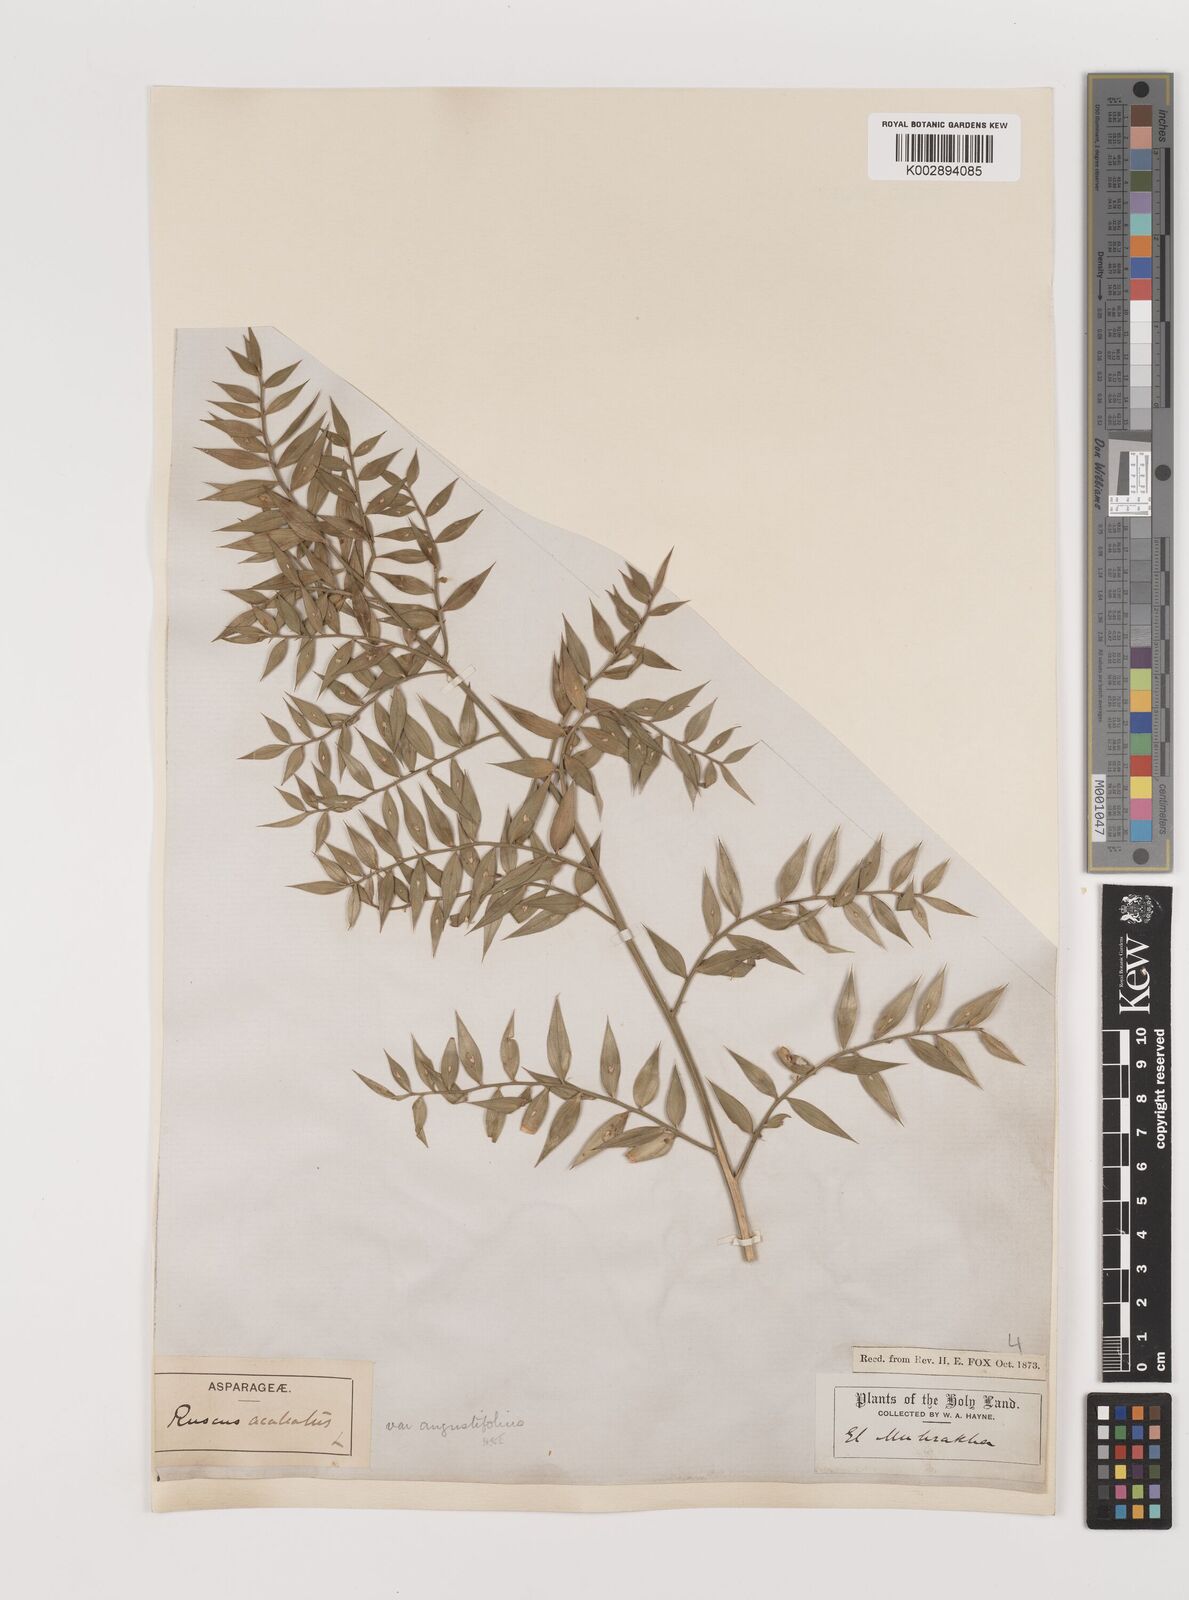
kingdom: Plantae
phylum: Tracheophyta
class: Liliopsida
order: Asparagales
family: Asparagaceae
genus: Ruscus
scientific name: Ruscus aculeatus
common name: Butcher's-broom
